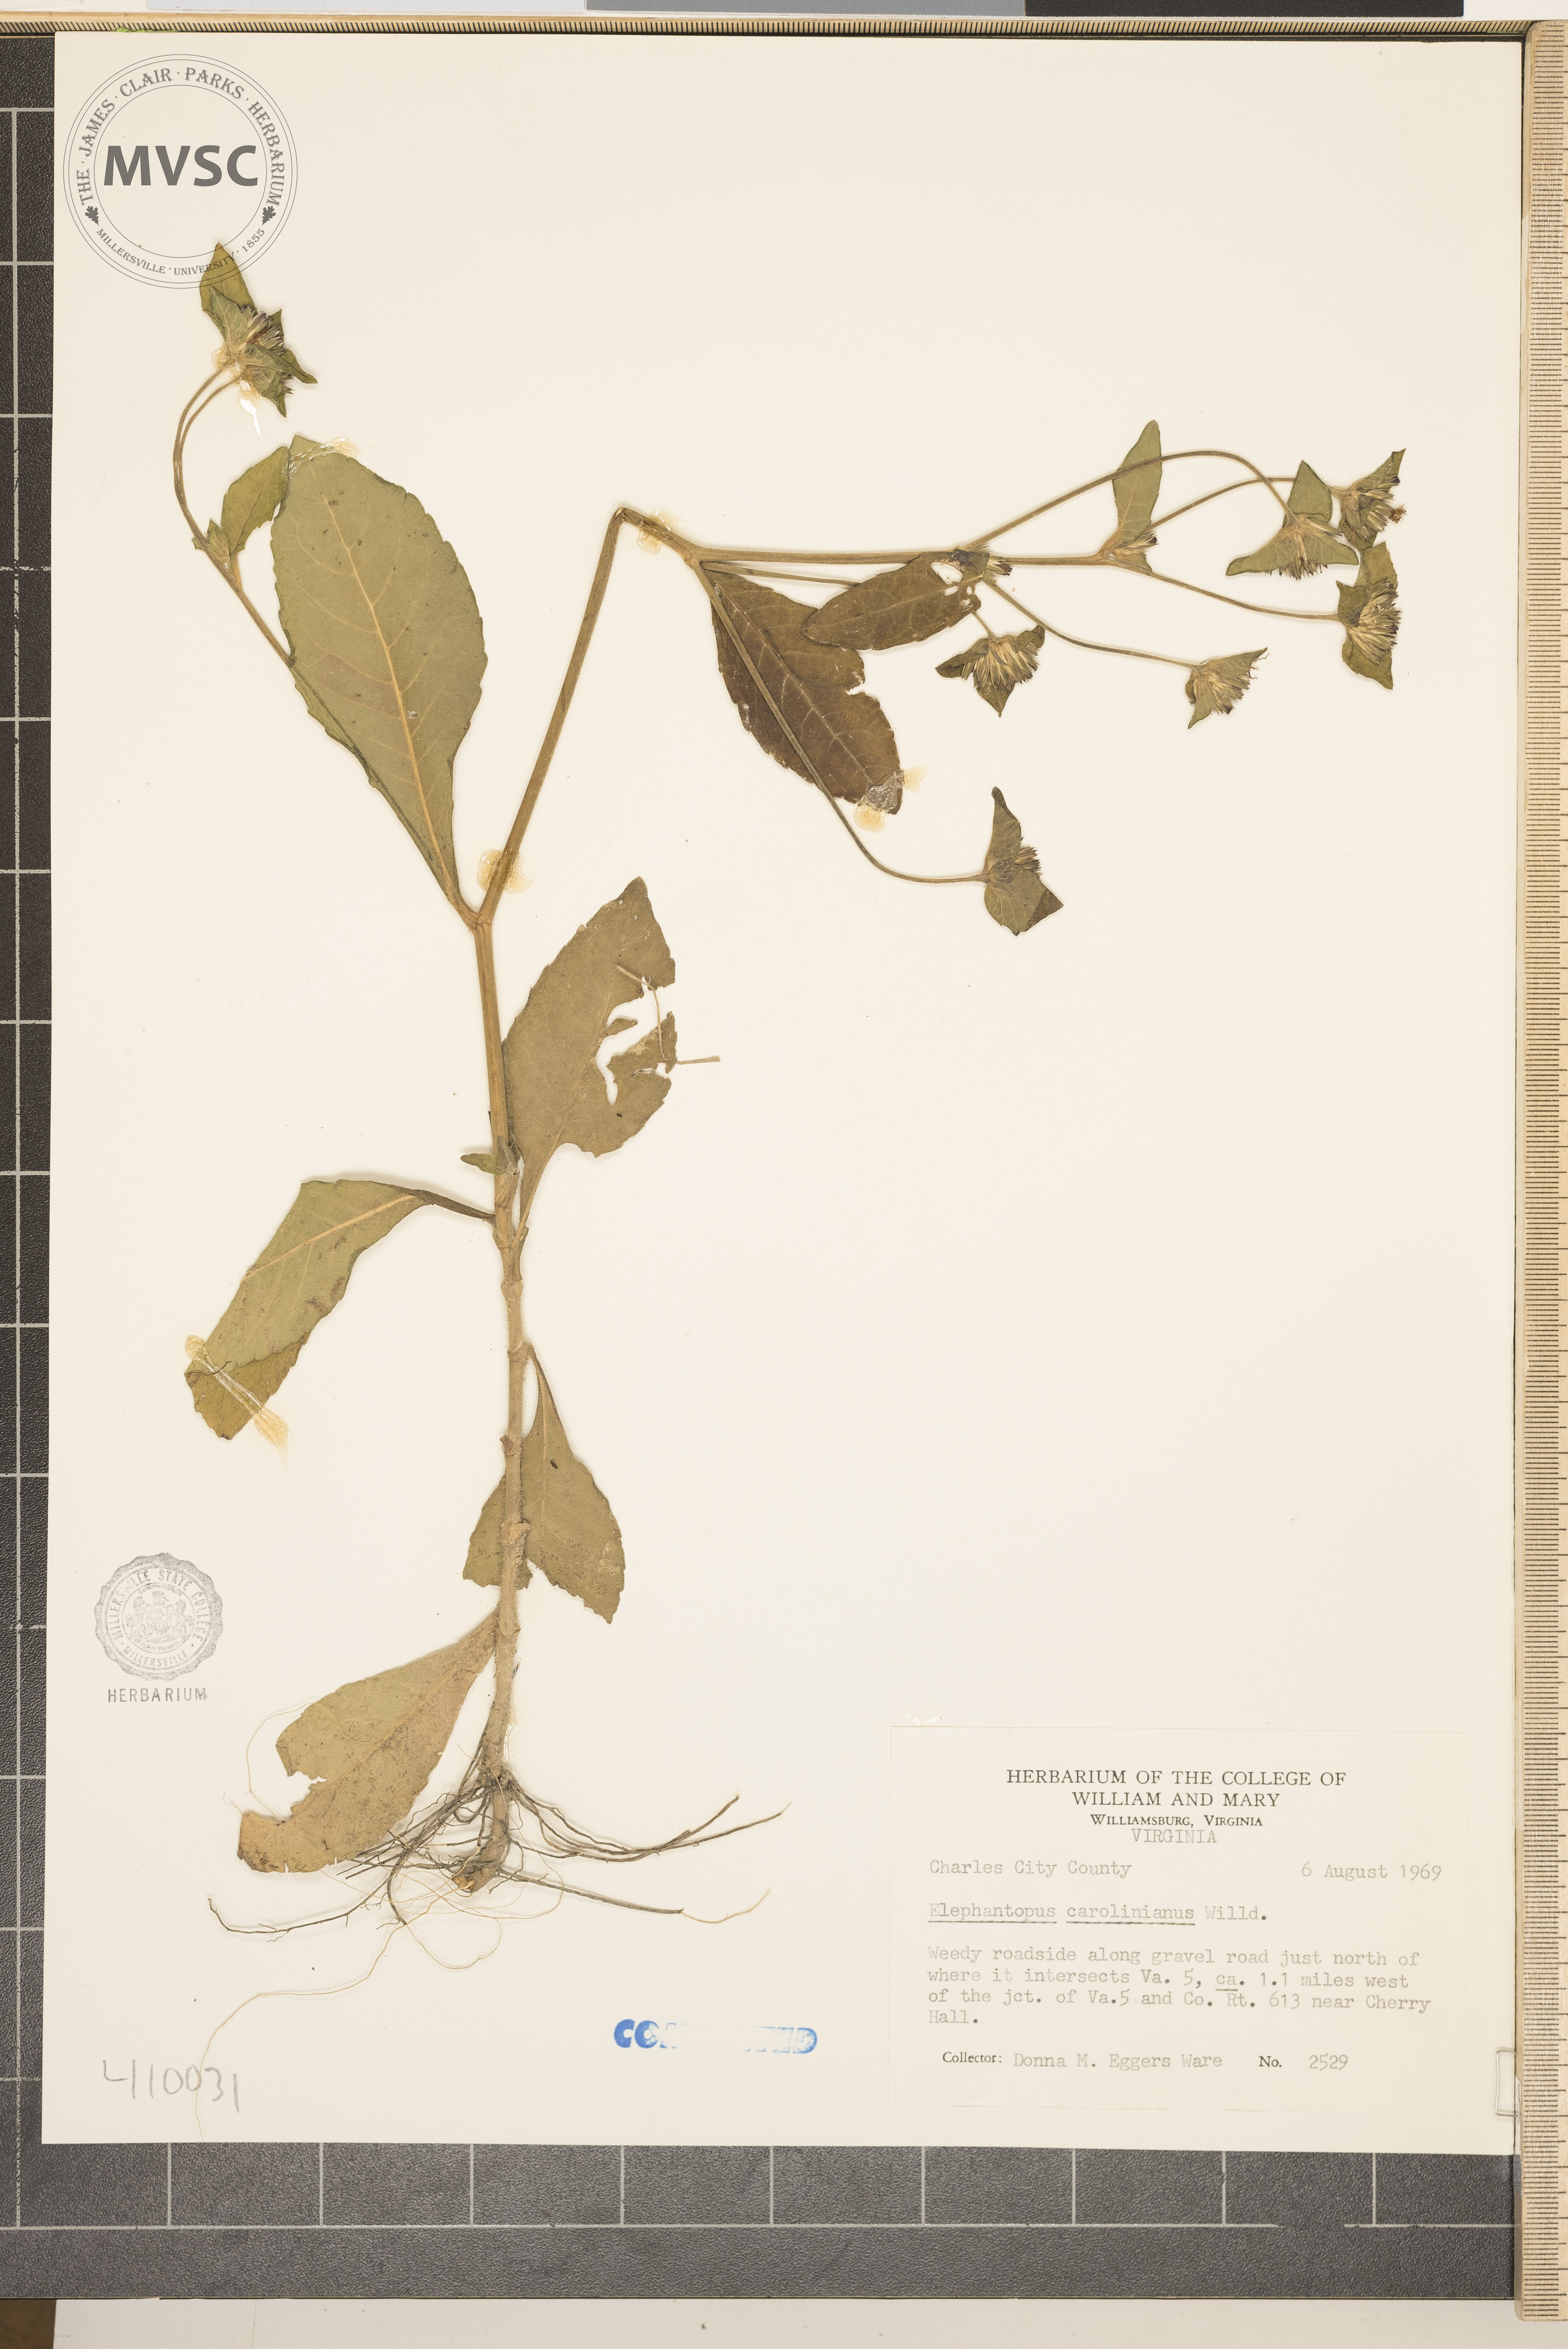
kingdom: Plantae
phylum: Tracheophyta
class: Magnoliopsida
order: Asterales
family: Asteraceae
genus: Elephantopus
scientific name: Elephantopus carolinianus
